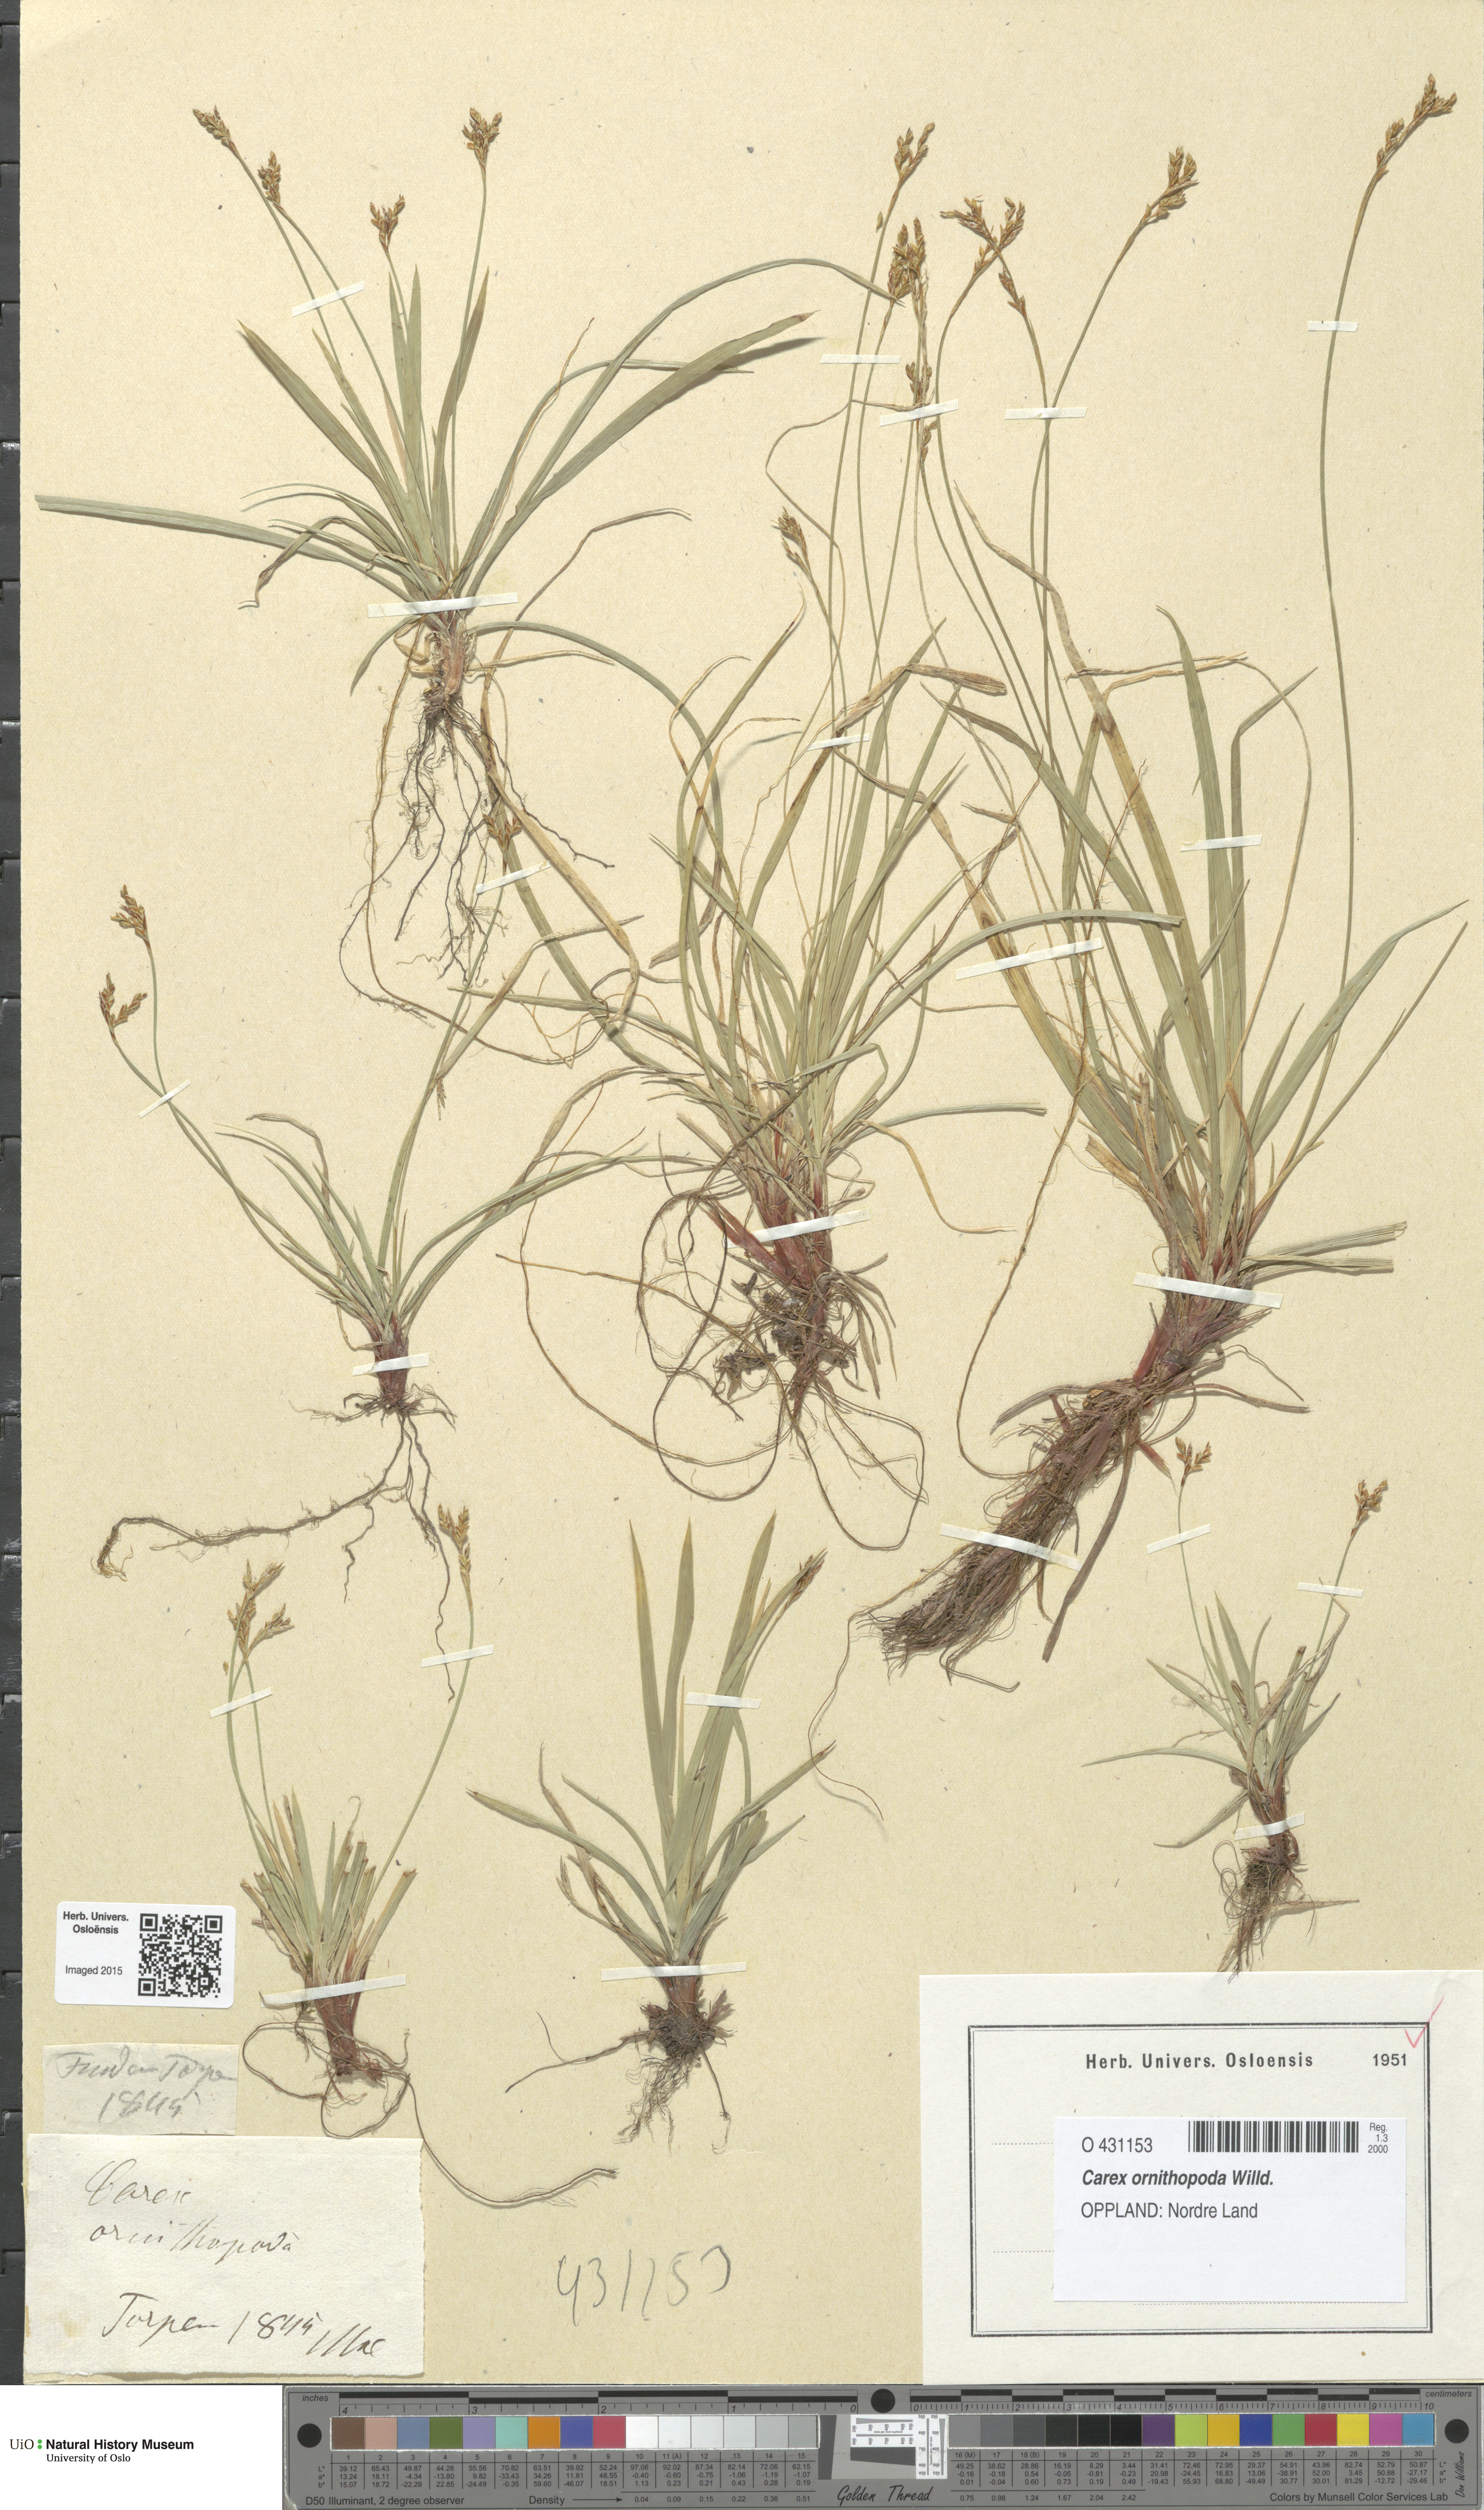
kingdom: Plantae
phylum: Tracheophyta
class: Liliopsida
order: Poales
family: Cyperaceae
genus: Carex
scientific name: Carex ornithopoda
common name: Bird's-foot sedge
